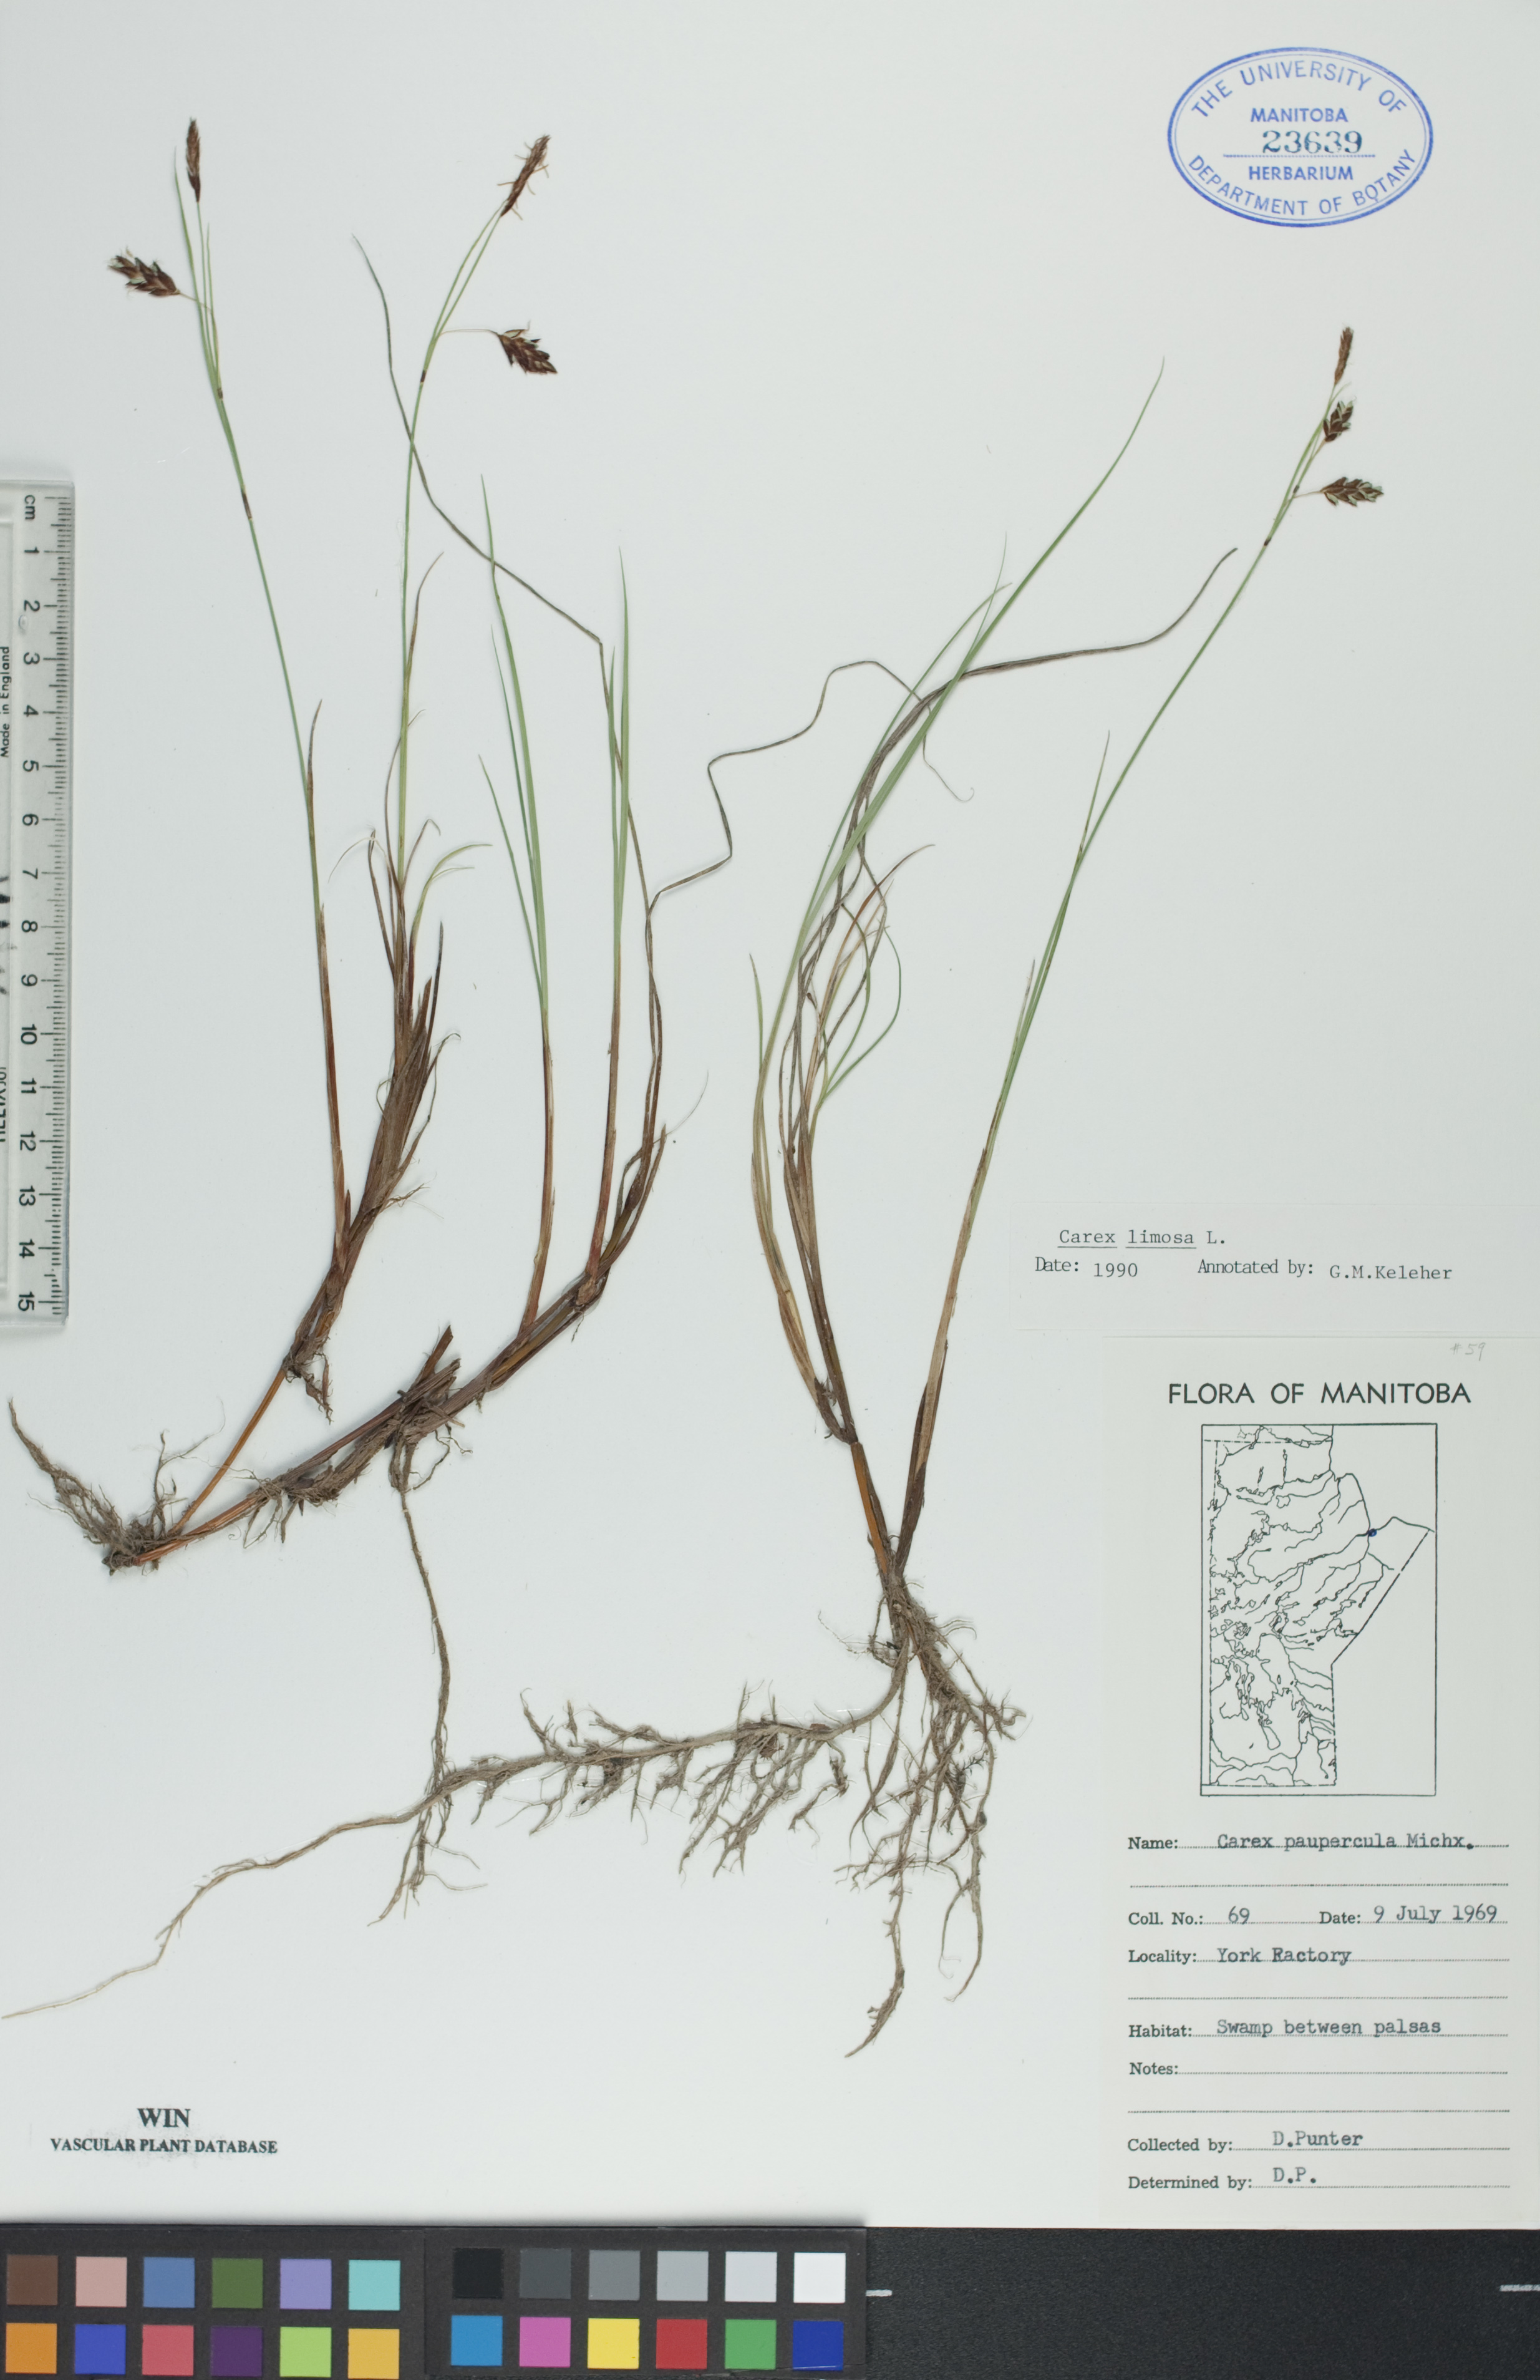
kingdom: Plantae
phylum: Tracheophyta
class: Liliopsida
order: Poales
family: Cyperaceae
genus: Carex
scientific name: Carex limosa
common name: Bog sedge
